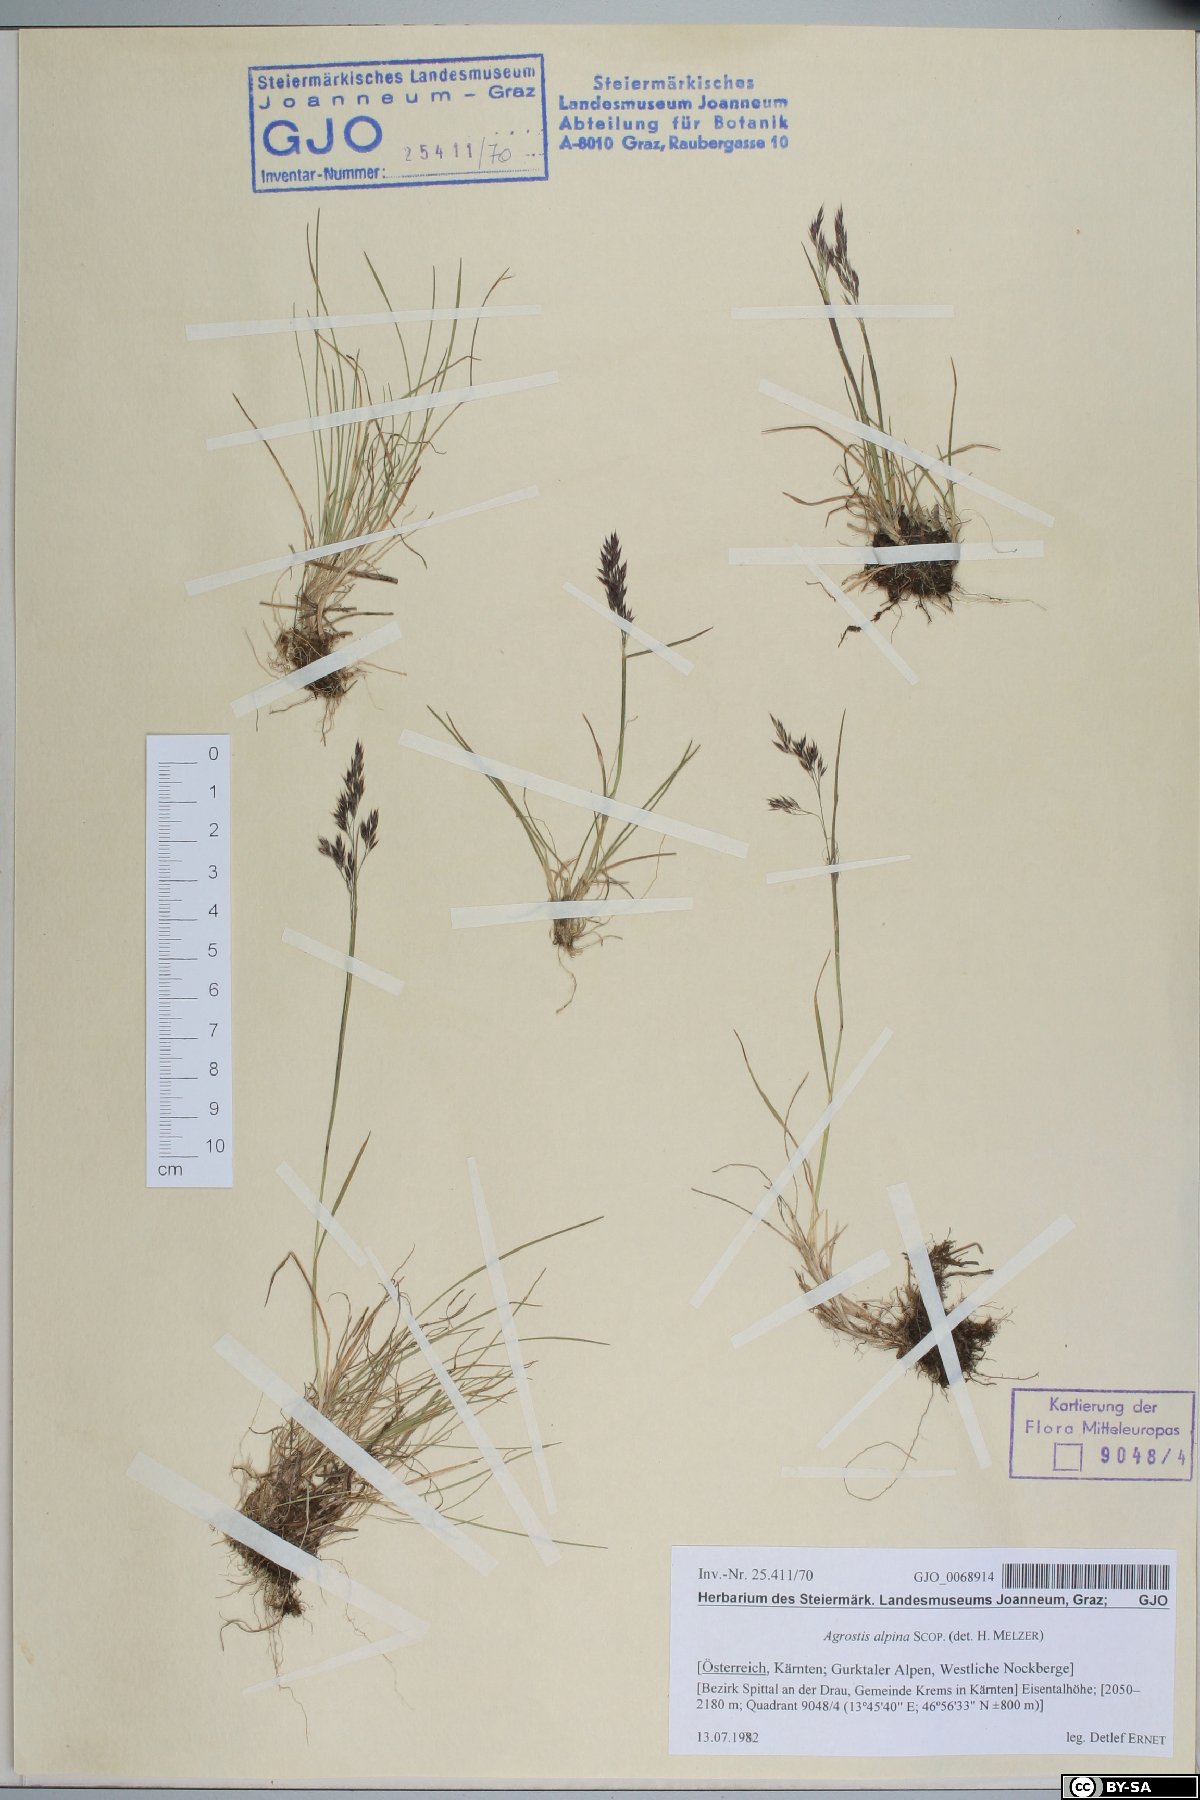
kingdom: Plantae
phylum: Tracheophyta
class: Liliopsida
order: Poales
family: Poaceae
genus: Alpagrostis
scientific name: Alpagrostis alpina
